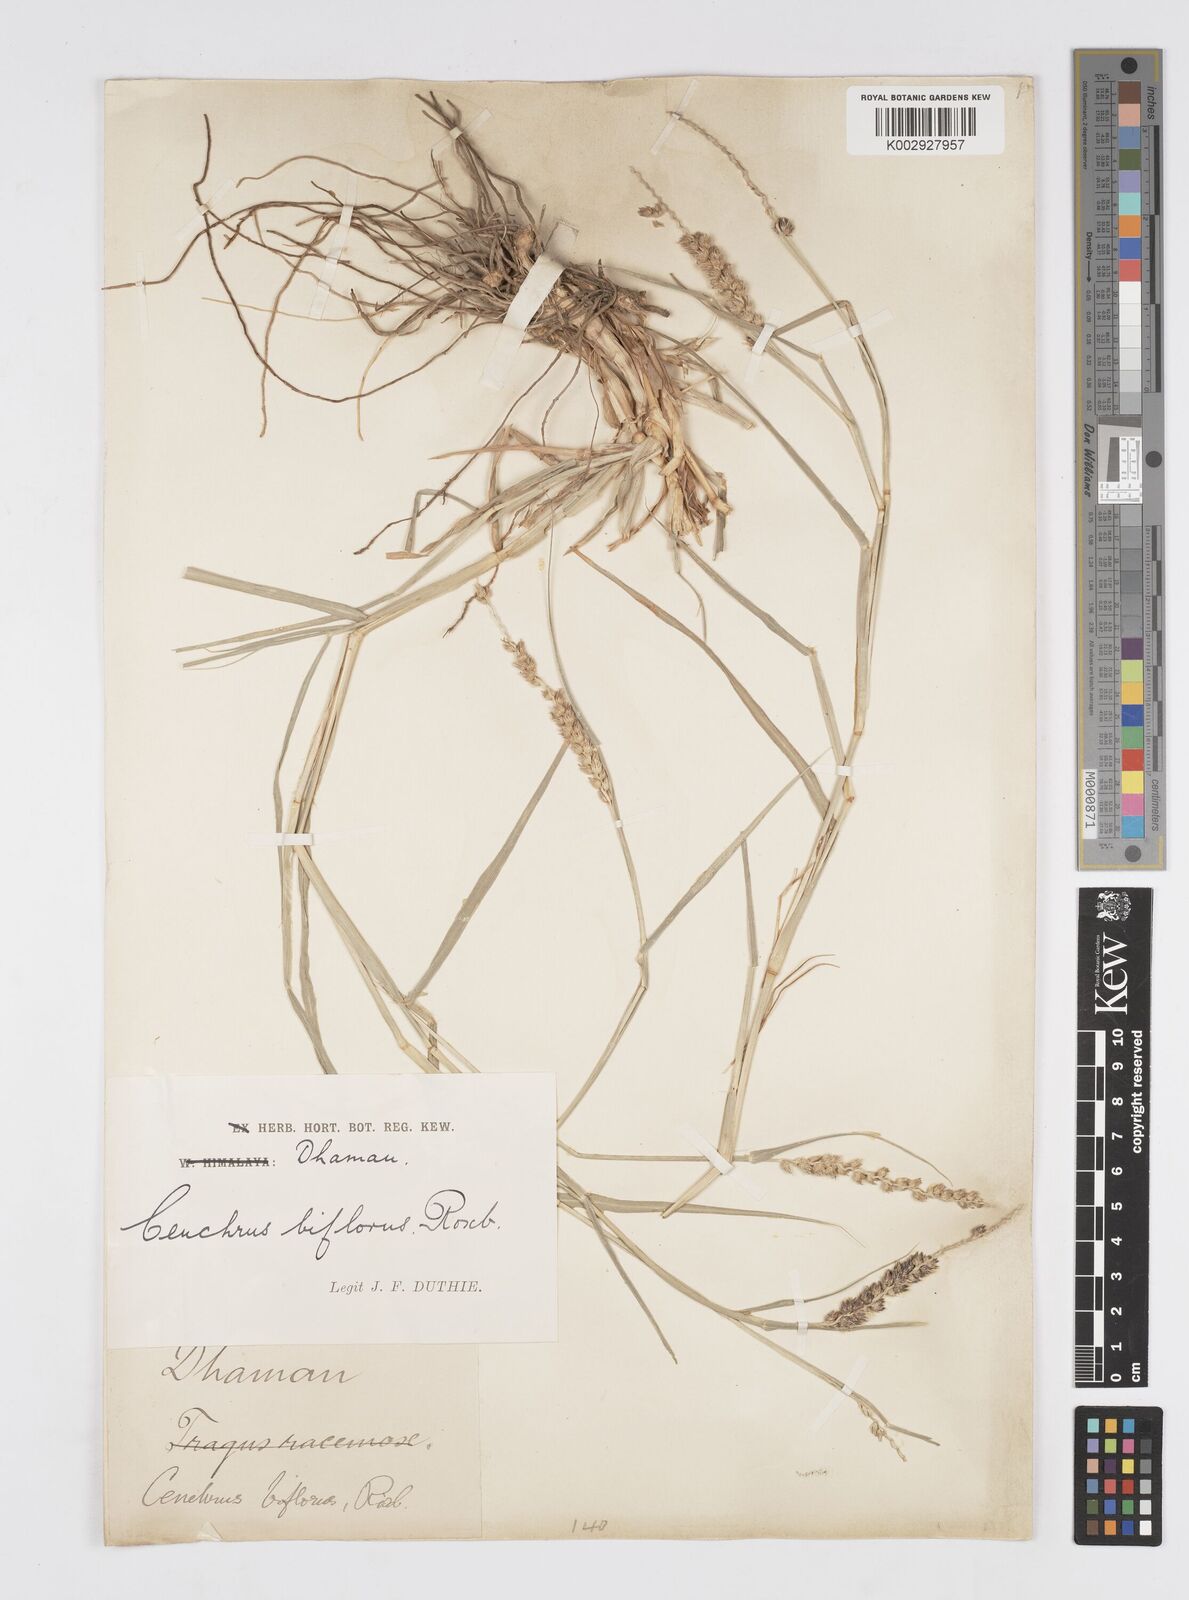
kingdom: Plantae
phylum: Tracheophyta
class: Liliopsida
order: Poales
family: Poaceae
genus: Cenchrus
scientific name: Cenchrus setigerus
